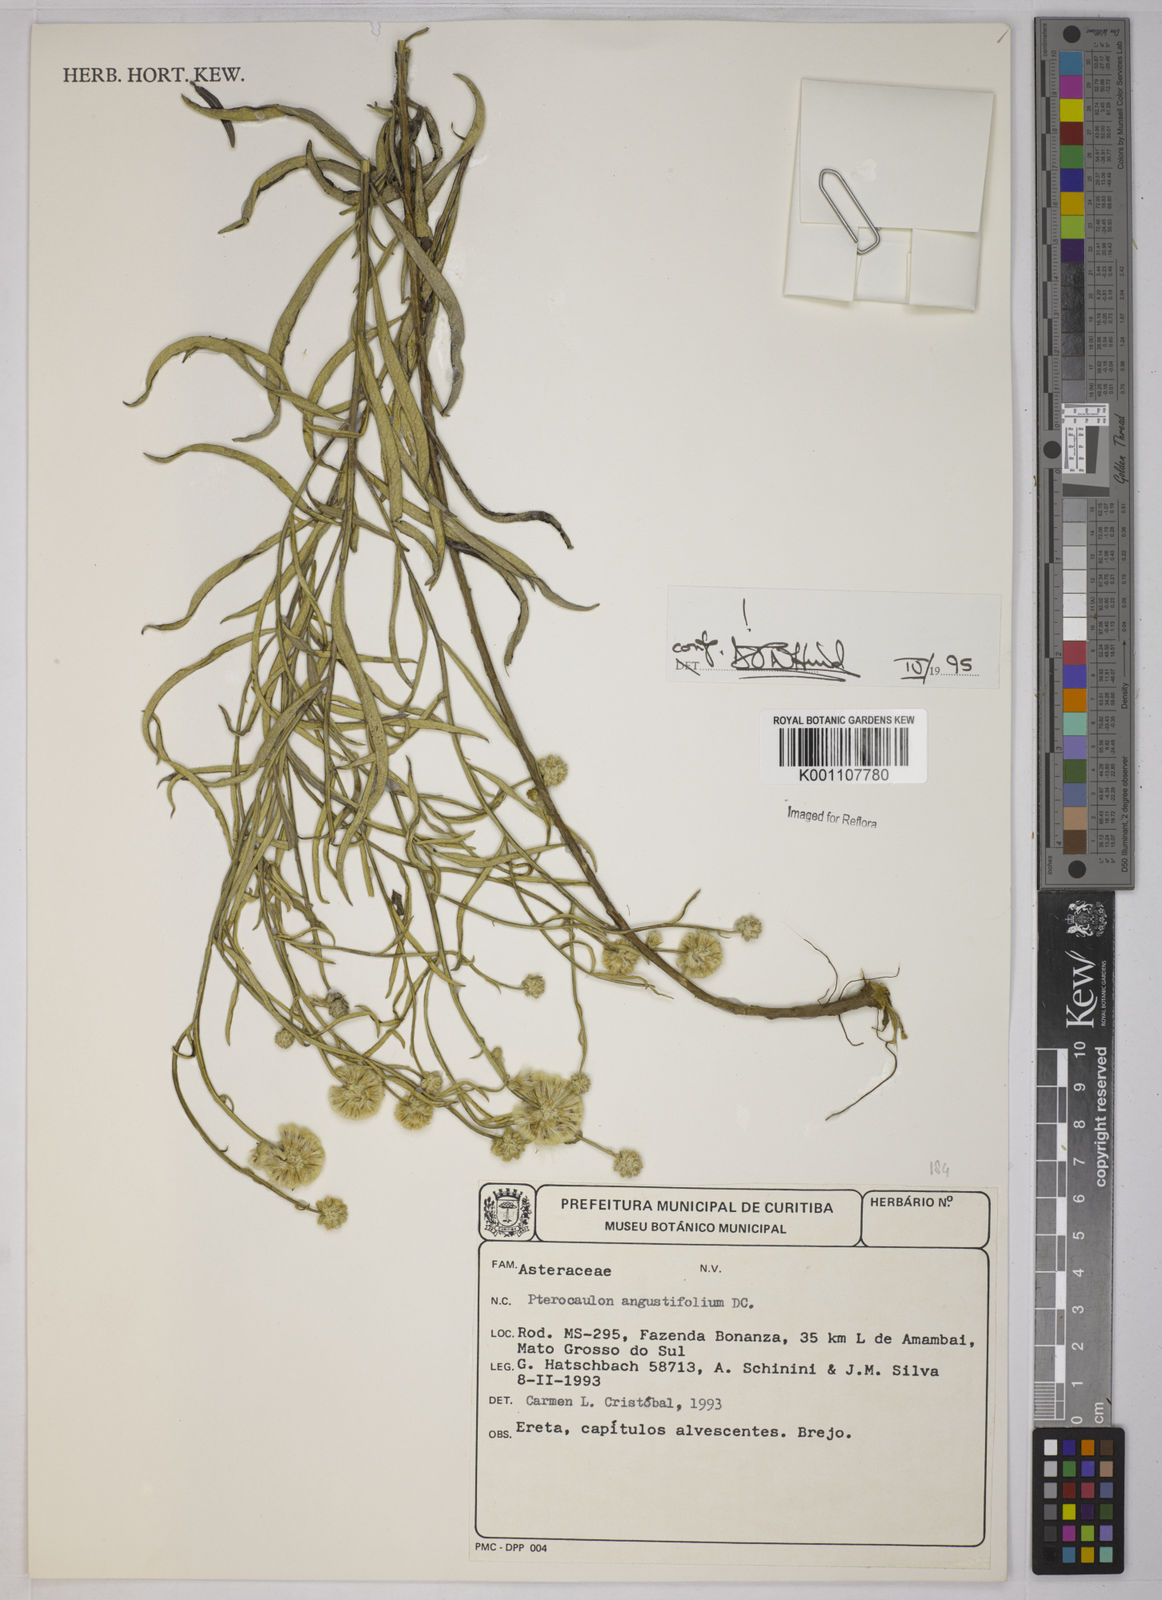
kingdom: Plantae
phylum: Tracheophyta
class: Magnoliopsida
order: Asterales
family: Asteraceae
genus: Pterocaulon
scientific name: Pterocaulon angustifolium
